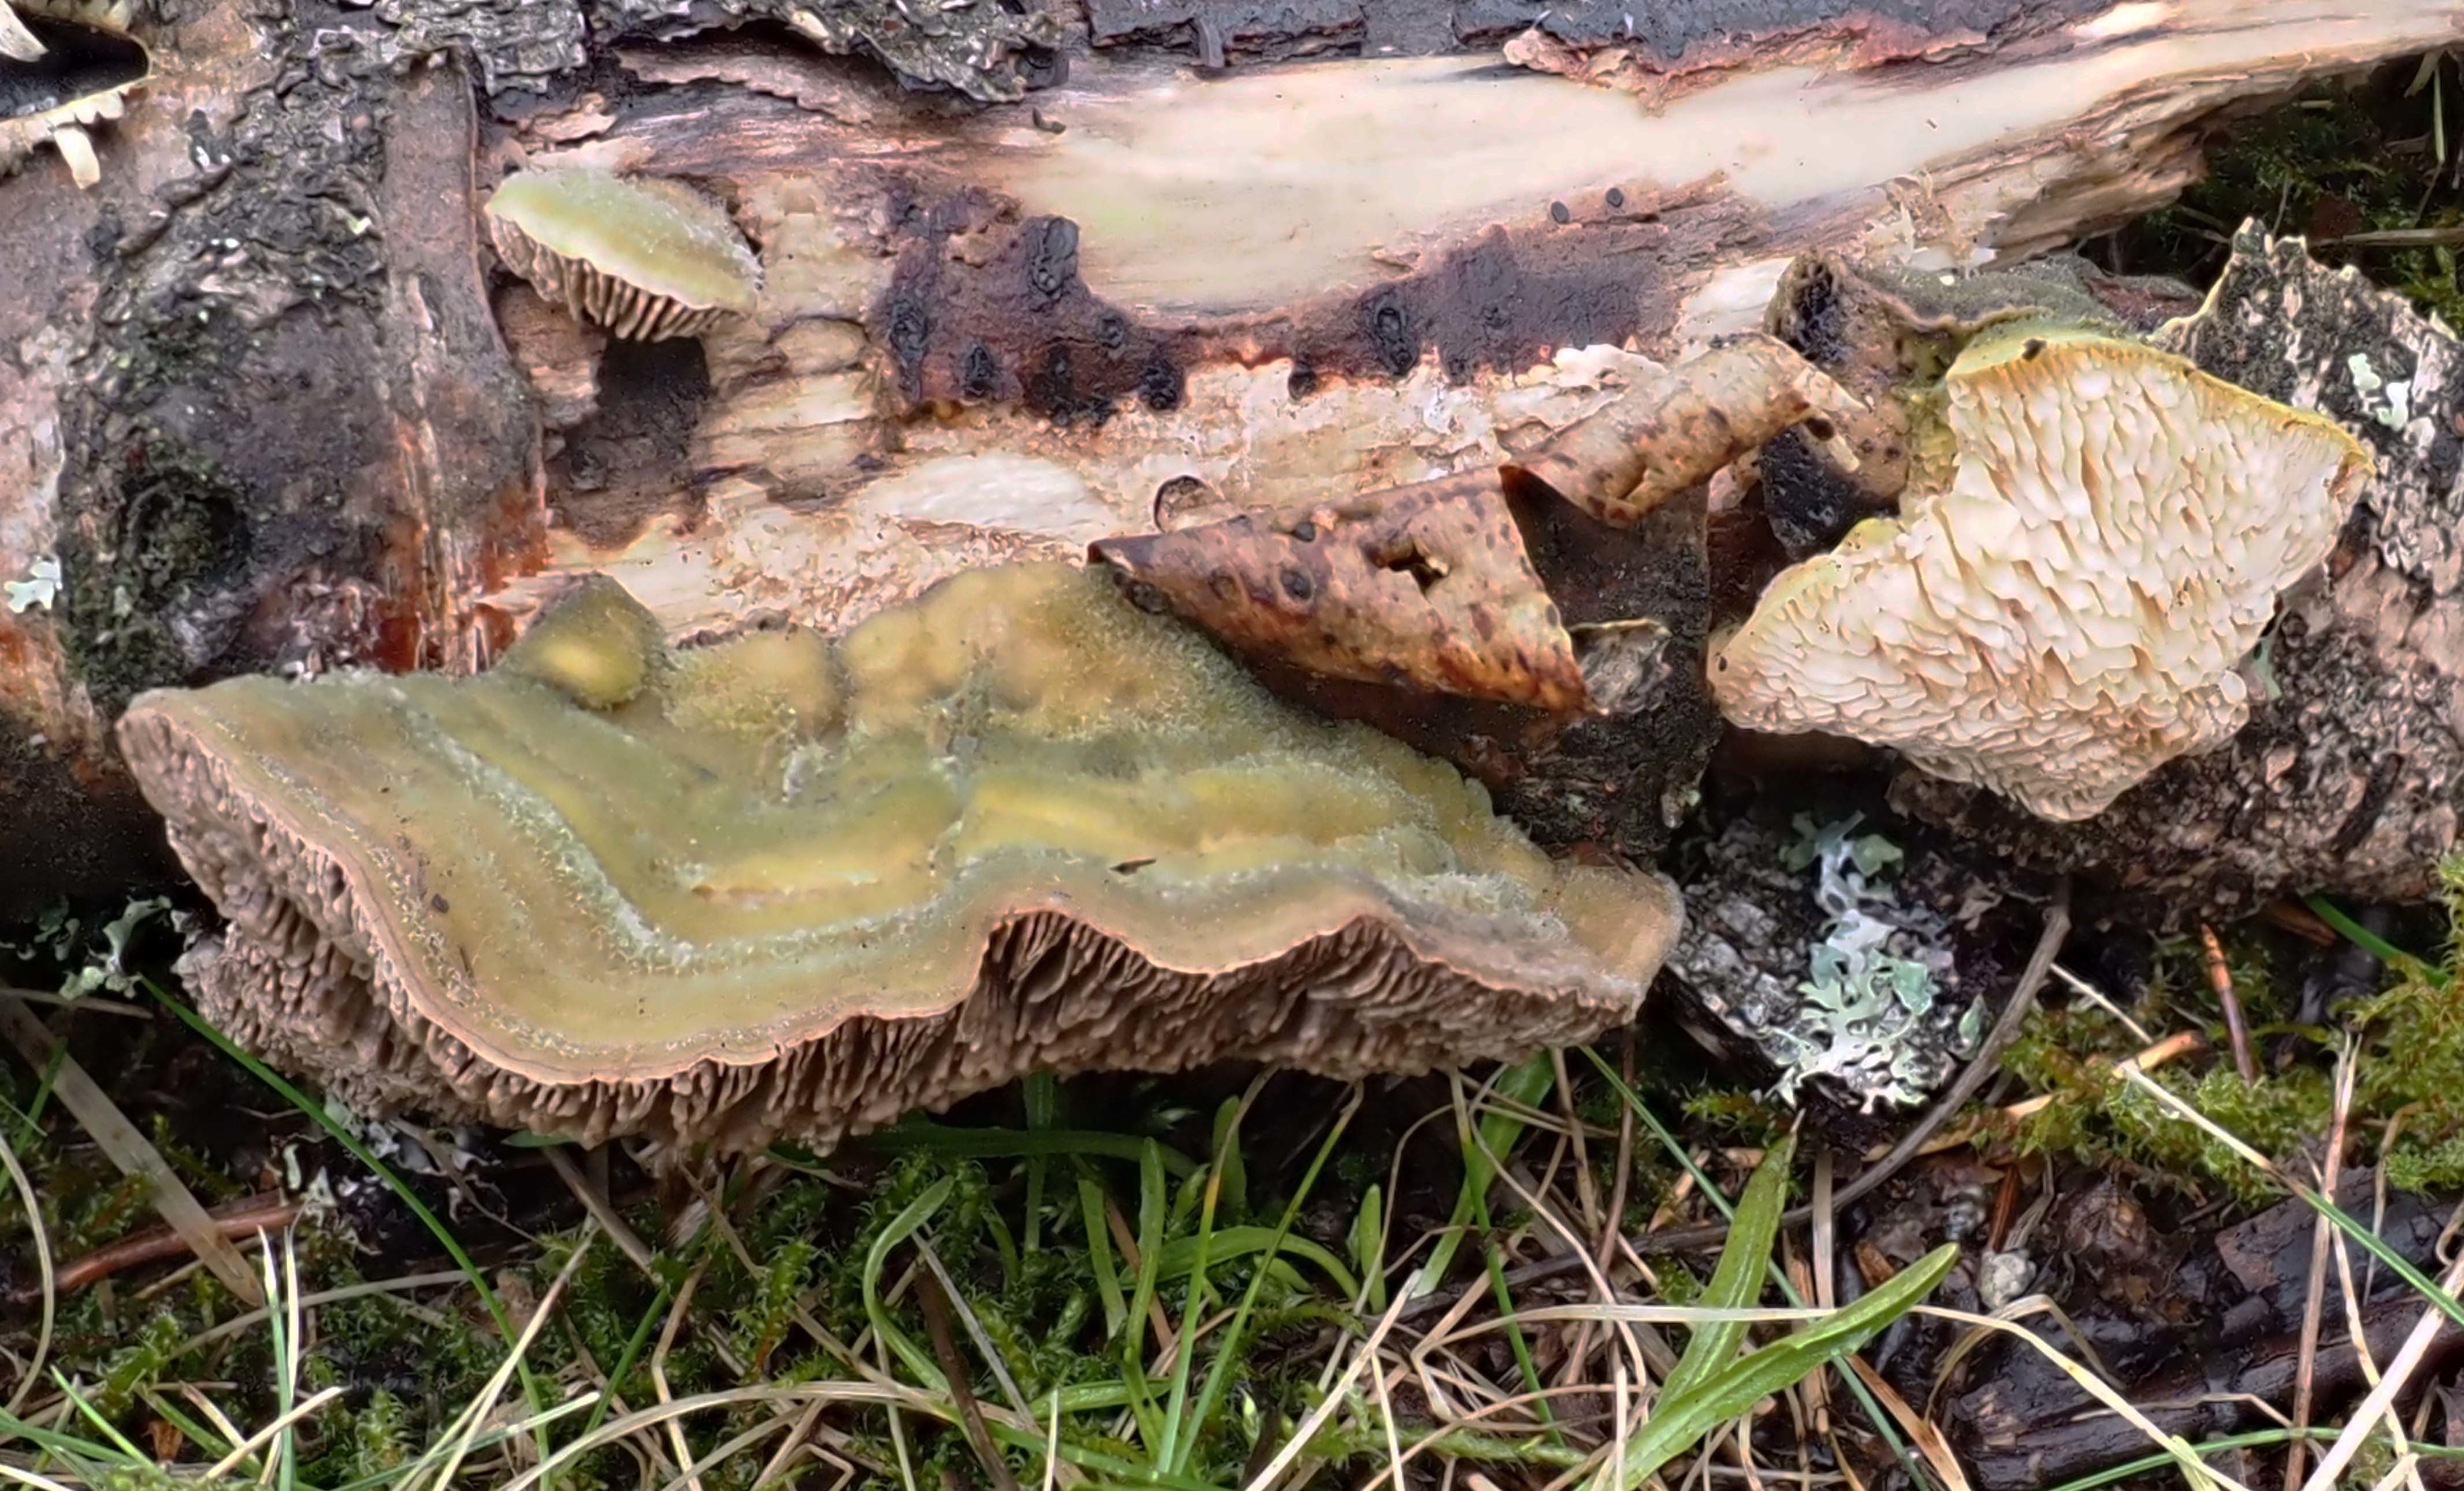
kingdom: Fungi
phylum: Basidiomycota
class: Agaricomycetes
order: Polyporales
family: Polyporaceae
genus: Lenzites
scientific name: Lenzites betulinus
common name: Birch mazegill
